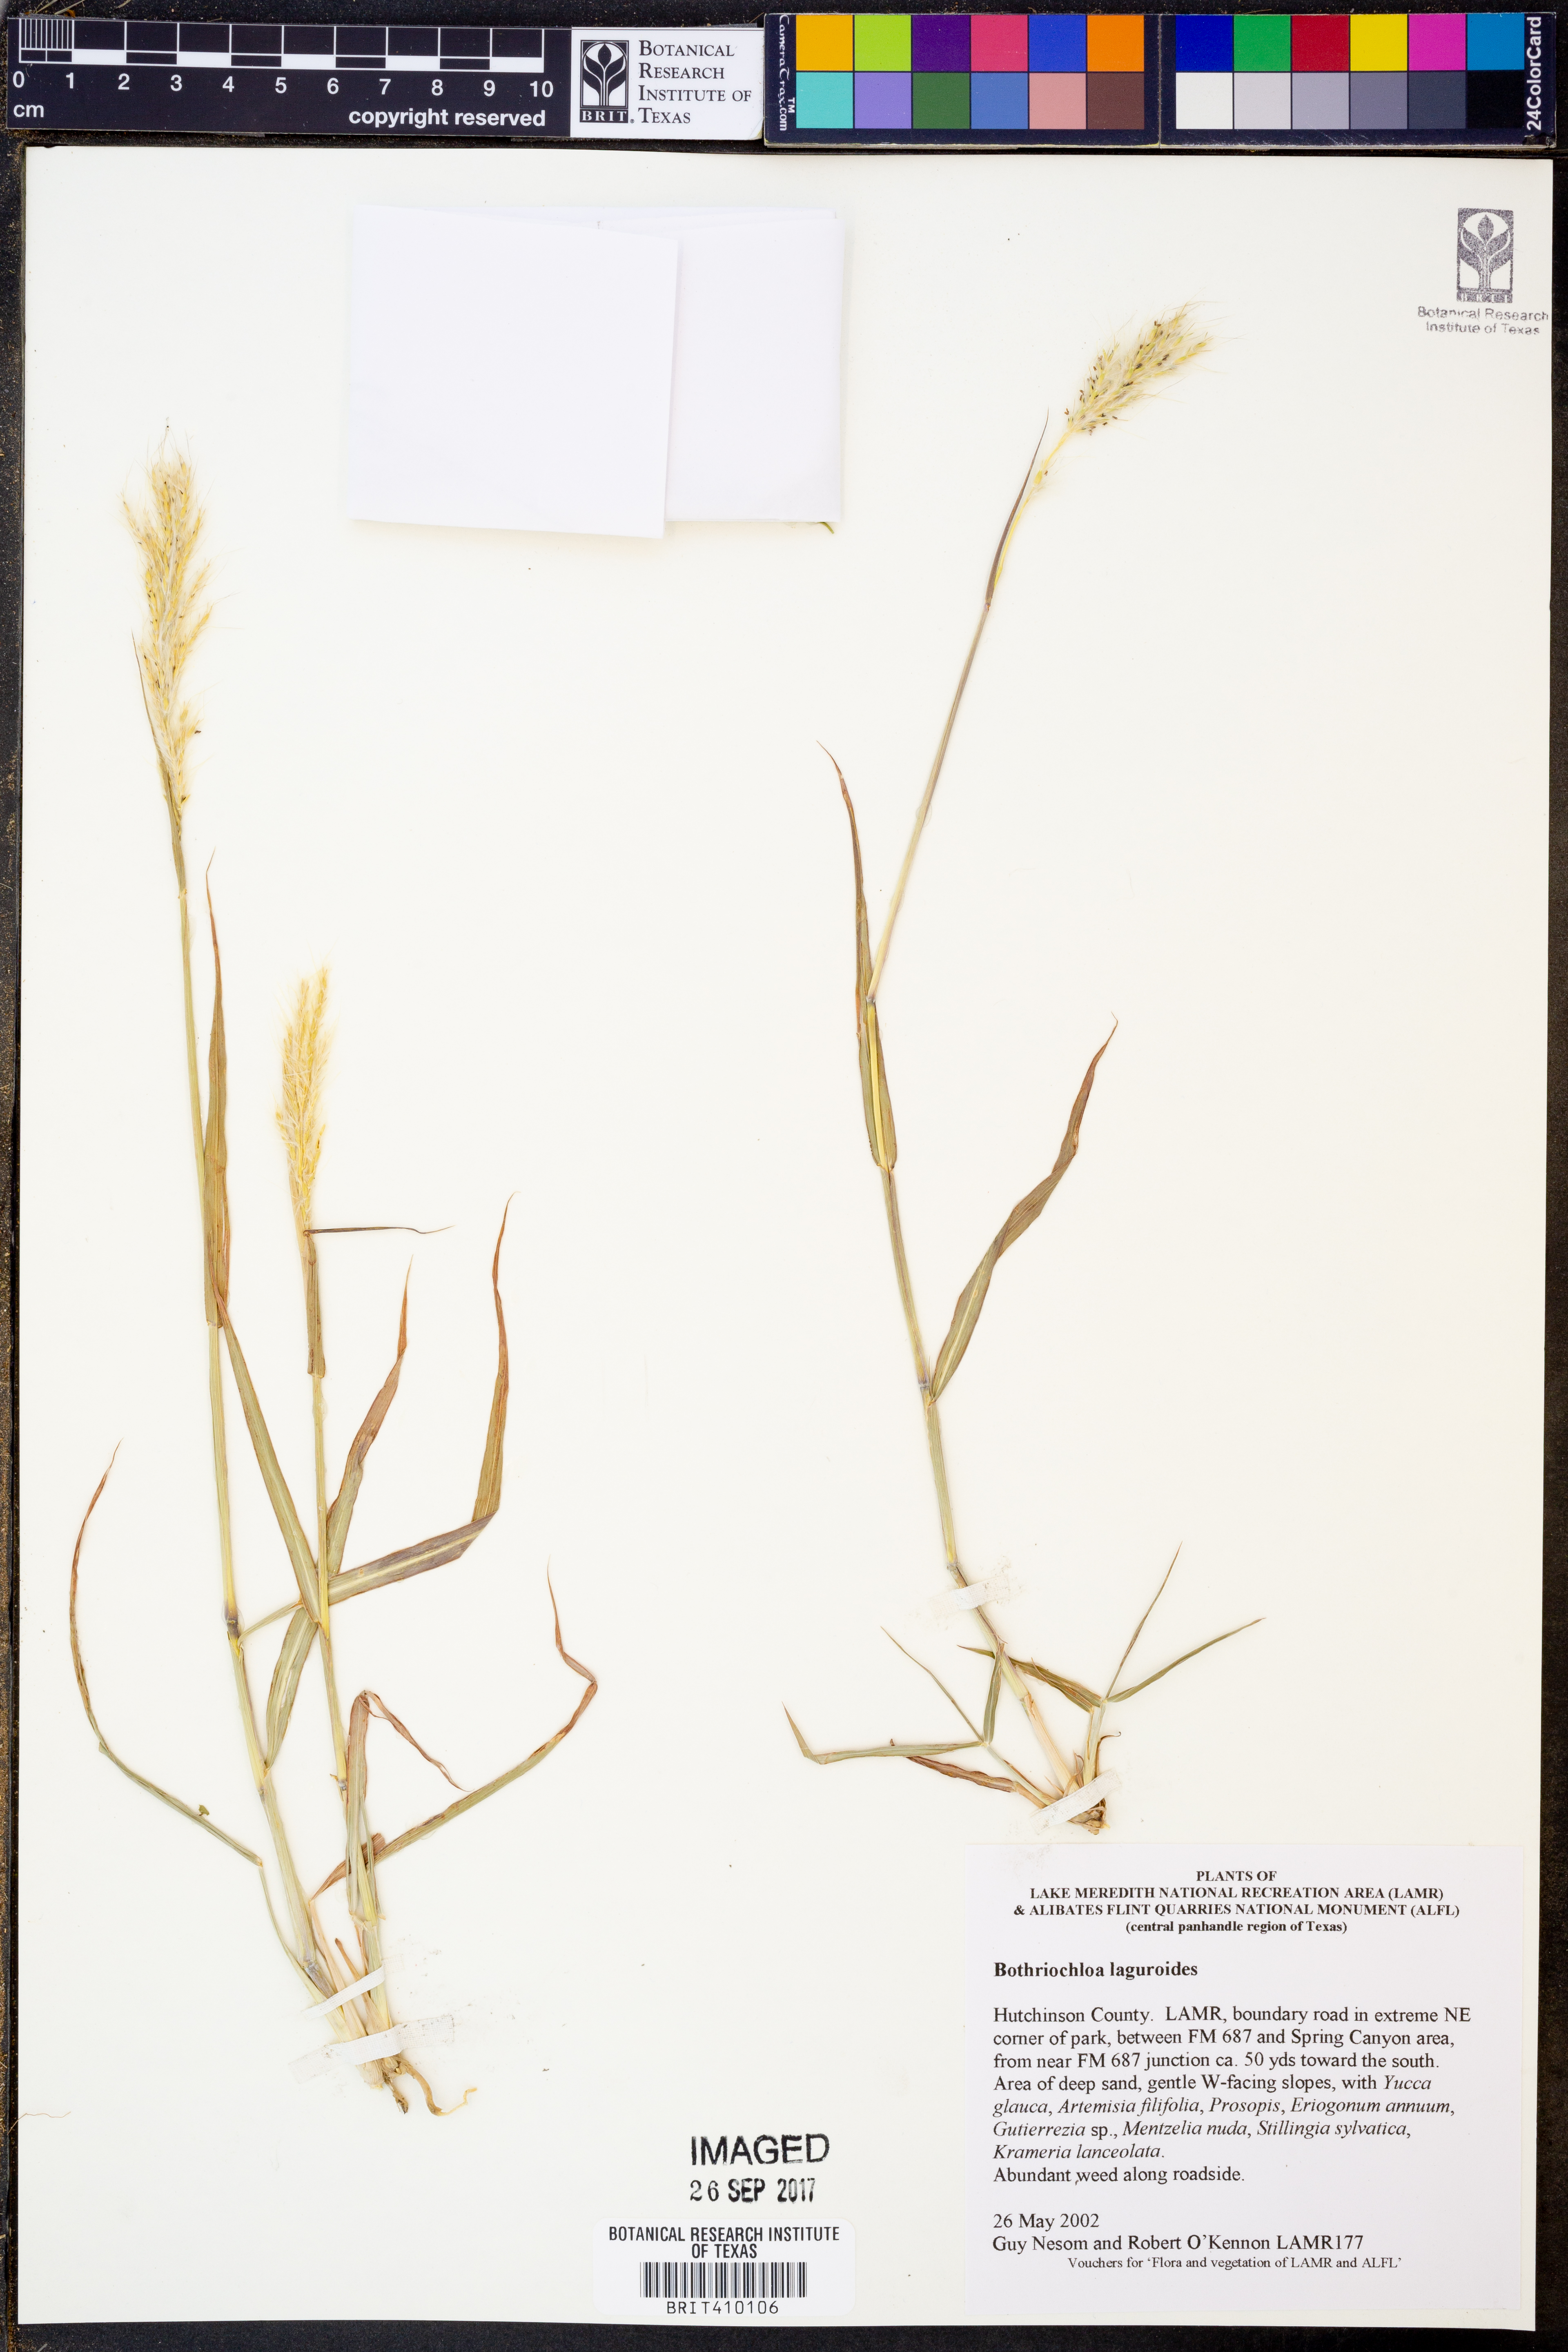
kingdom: Plantae
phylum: Tracheophyta
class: Liliopsida
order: Poales
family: Poaceae
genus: Bothriochloa
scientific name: Bothriochloa laguroides
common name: Silver bluestem
